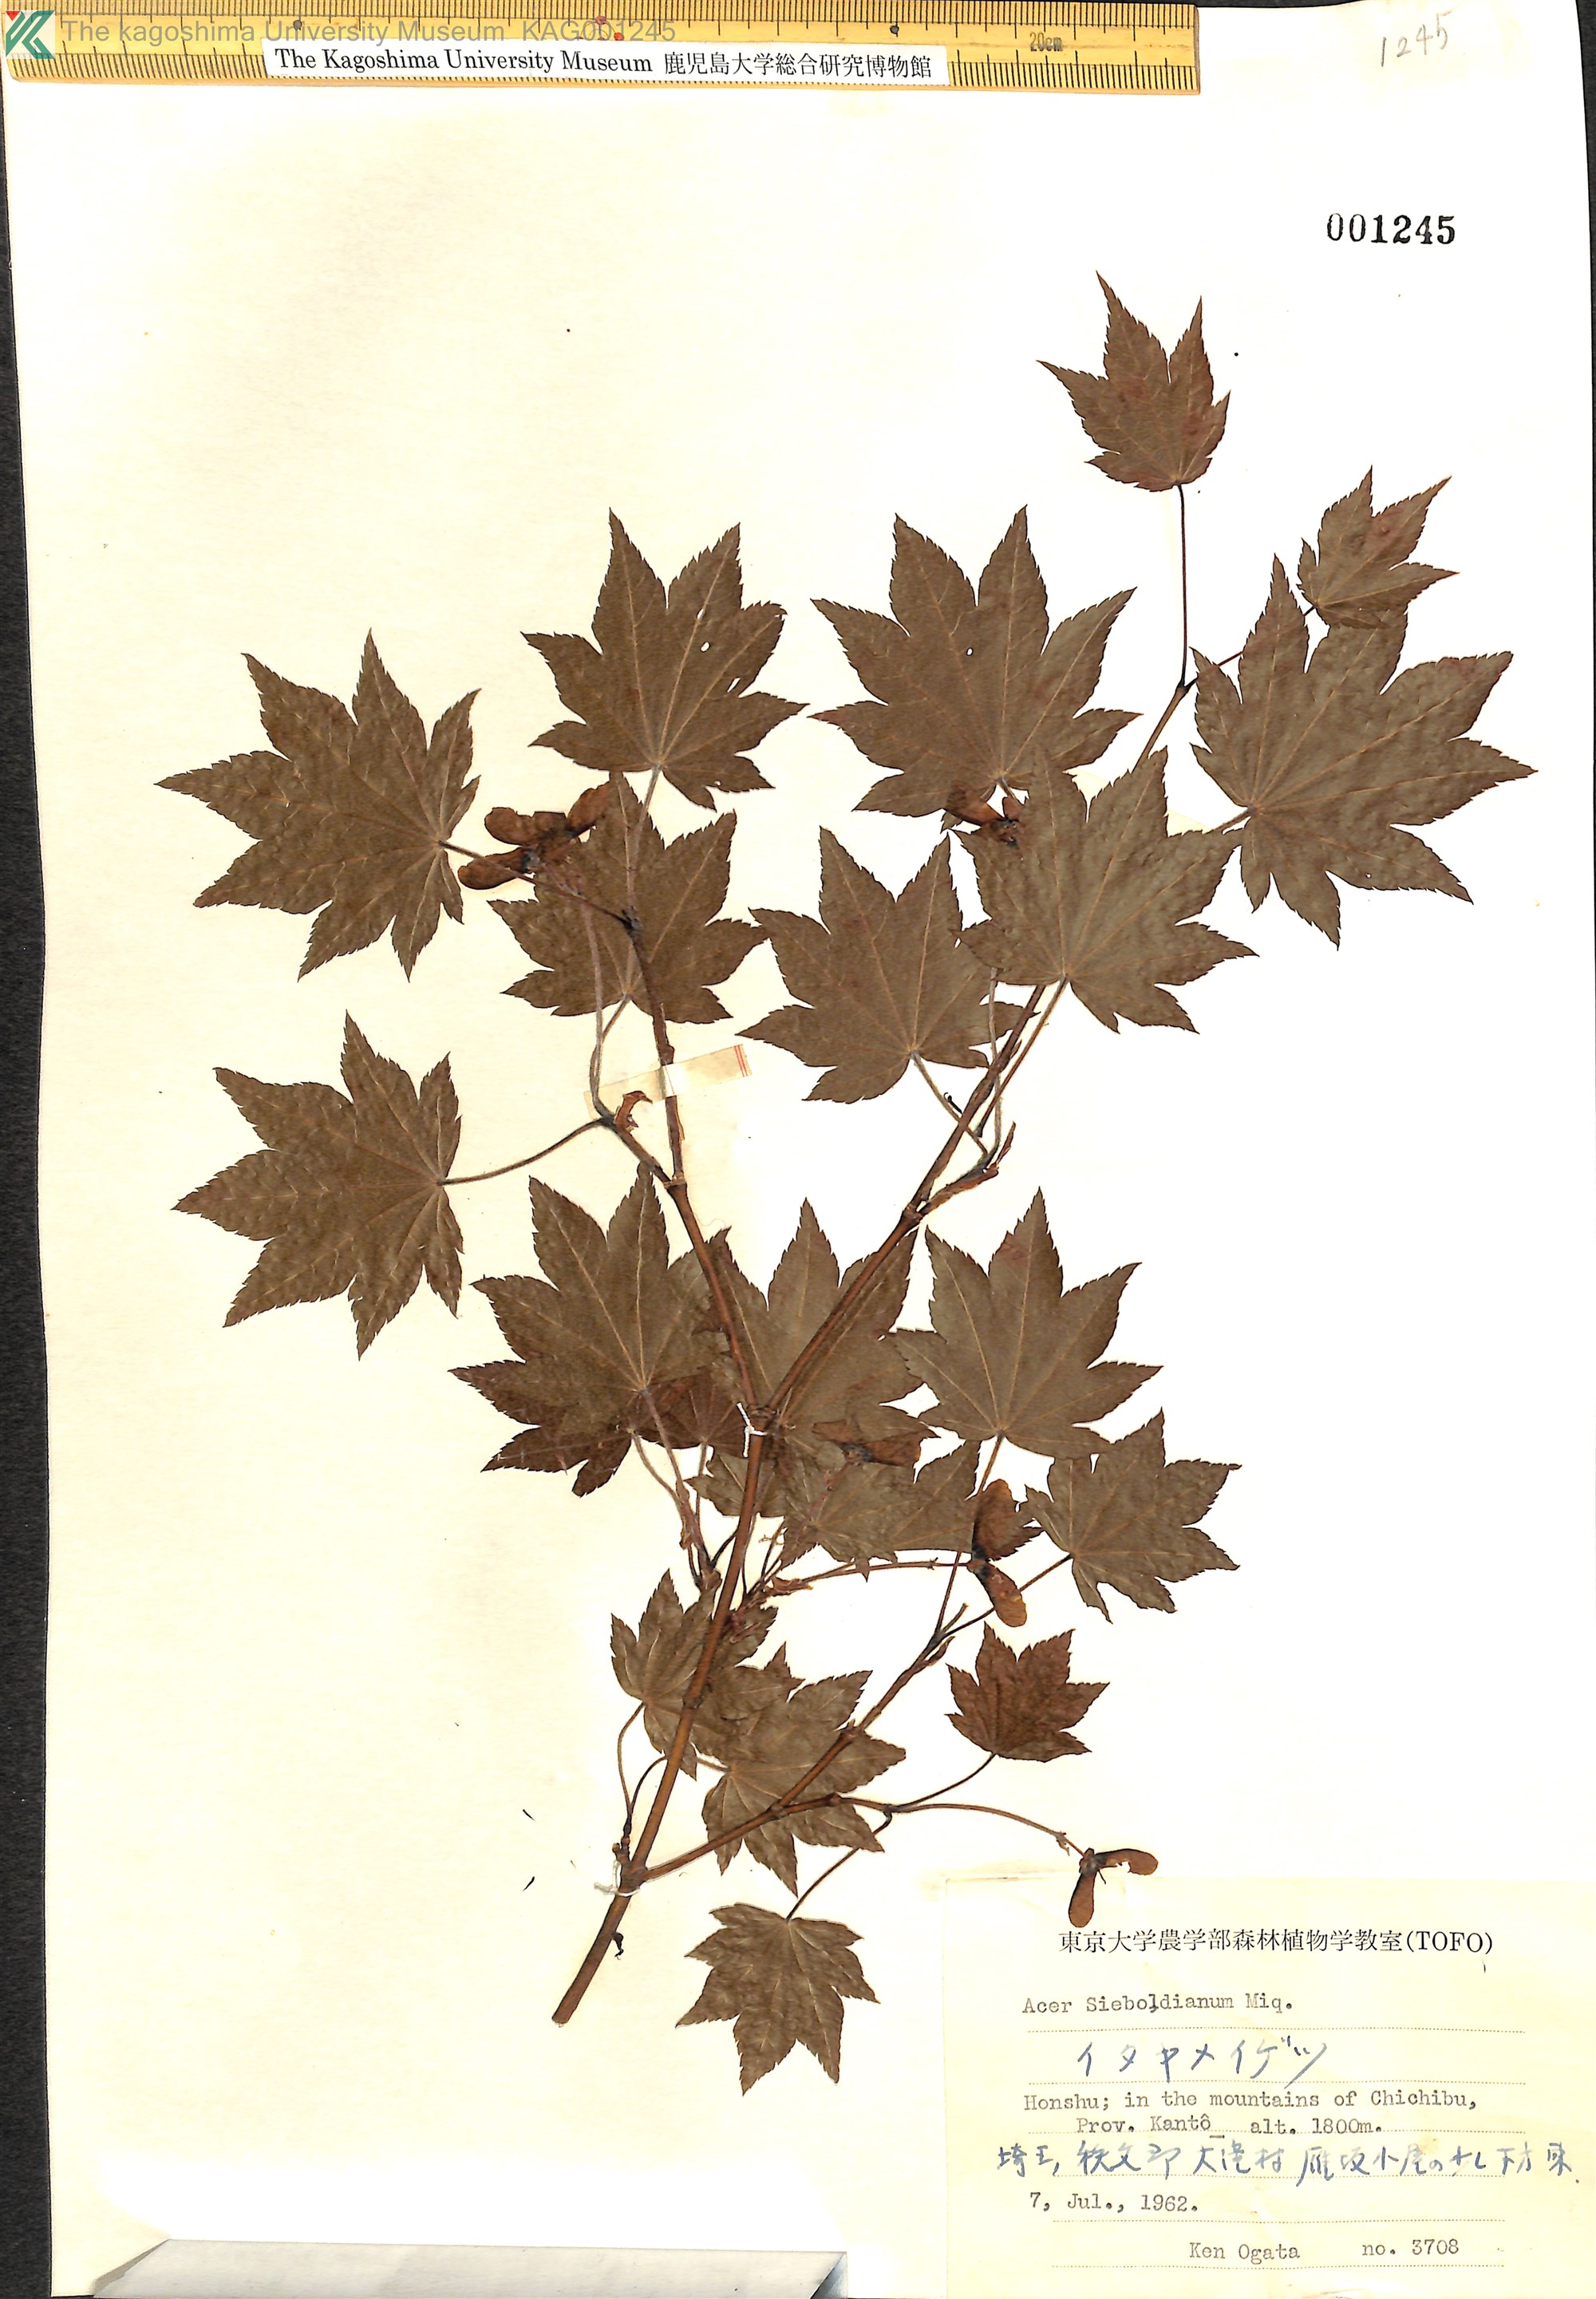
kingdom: Plantae
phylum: Tracheophyta
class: Magnoliopsida
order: Sapindales
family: Sapindaceae
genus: Acer
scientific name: Acer sieboldianum
